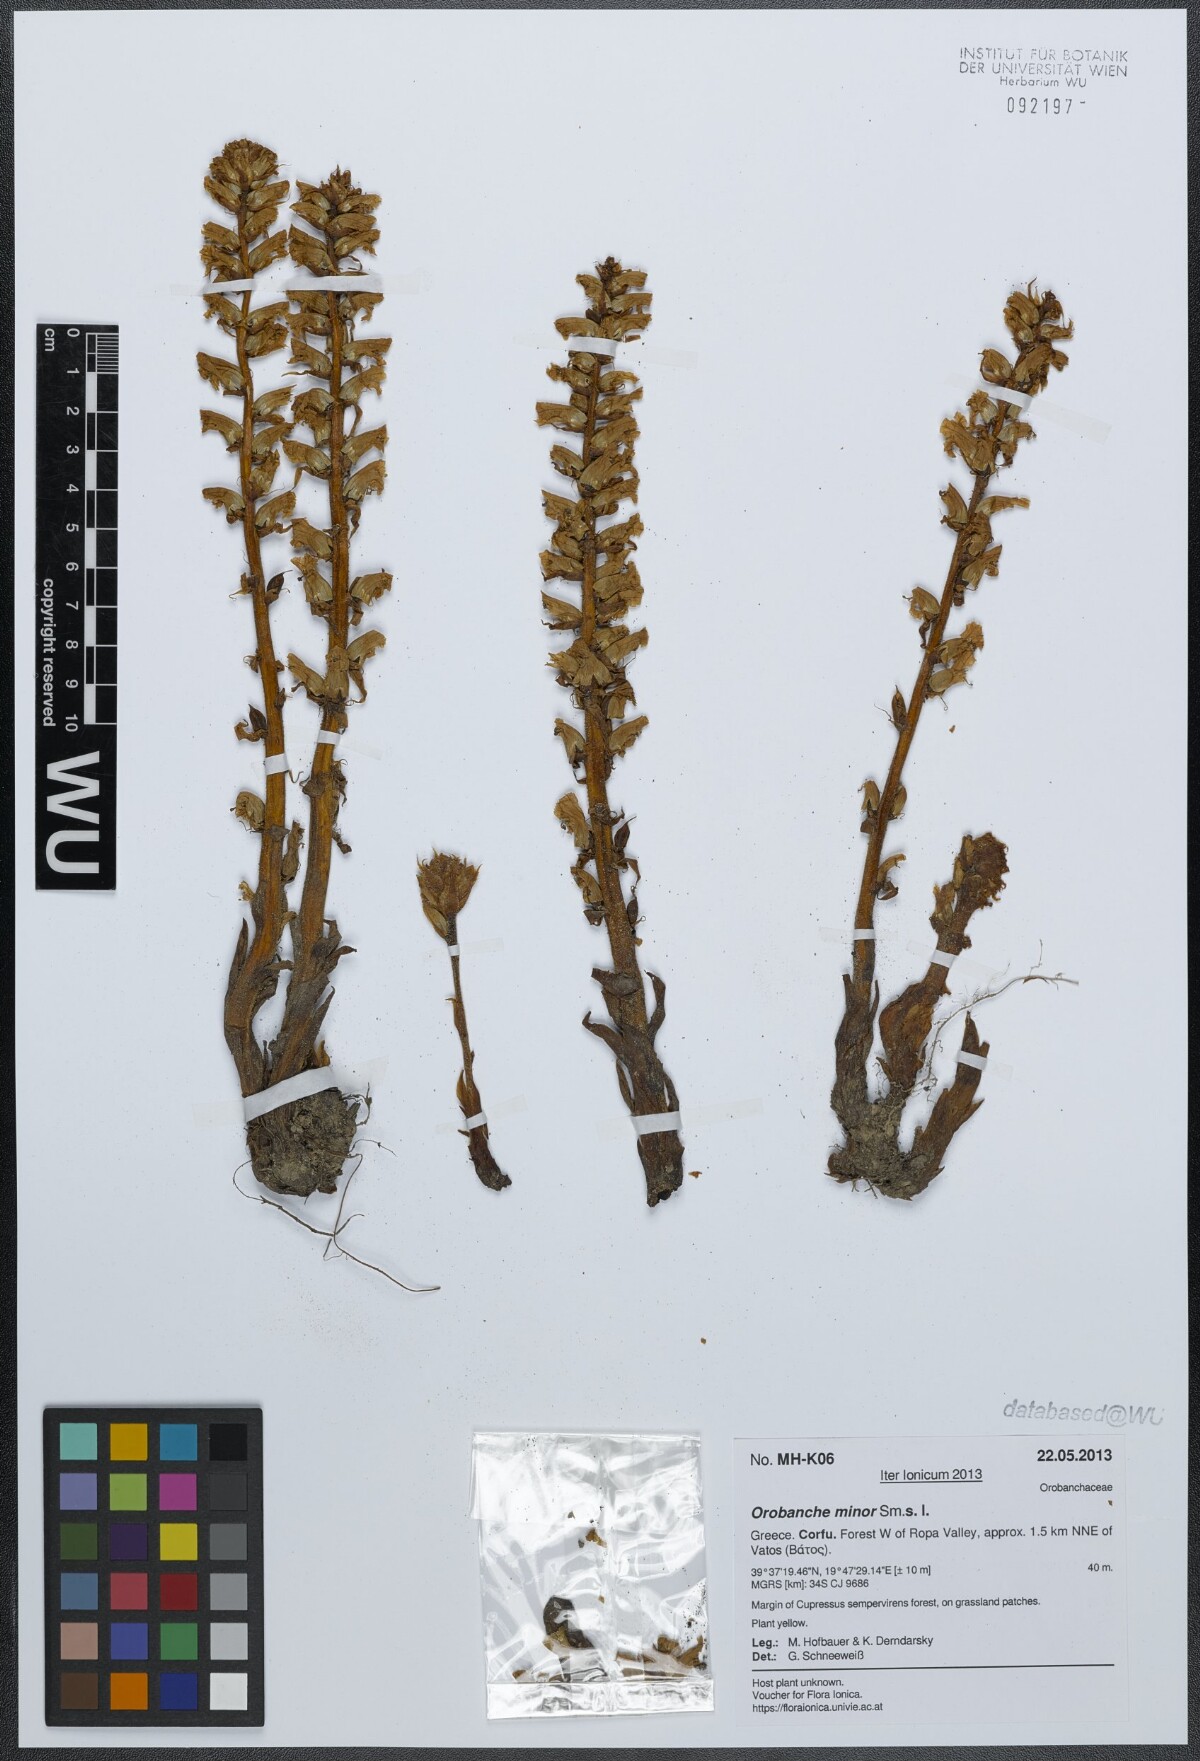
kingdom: Plantae
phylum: Tracheophyta
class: Magnoliopsida
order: Lamiales
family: Orobanchaceae
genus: Orobanche
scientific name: Orobanche minor
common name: Common broomrape
